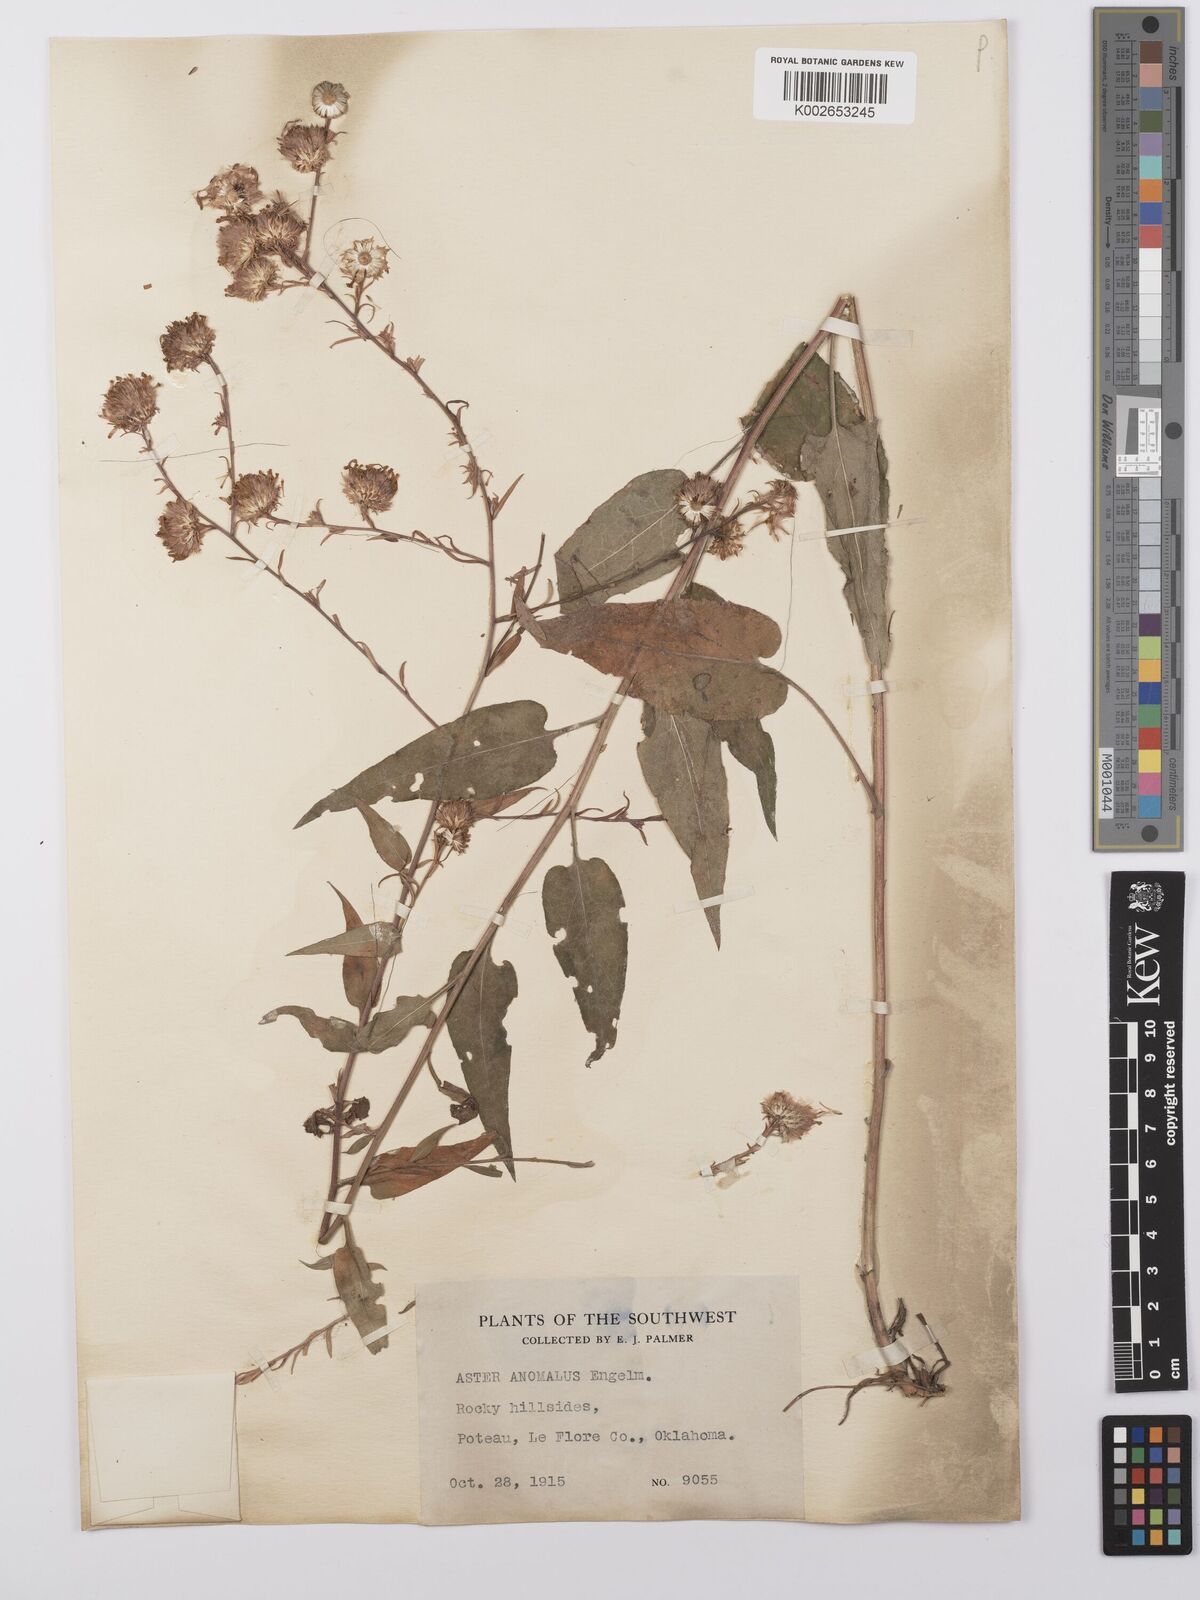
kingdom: Plantae
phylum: Tracheophyta
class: Magnoliopsida
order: Asterales
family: Asteraceae
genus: Symphyotrichum
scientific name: Symphyotrichum anomalum
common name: Many-ray aster
